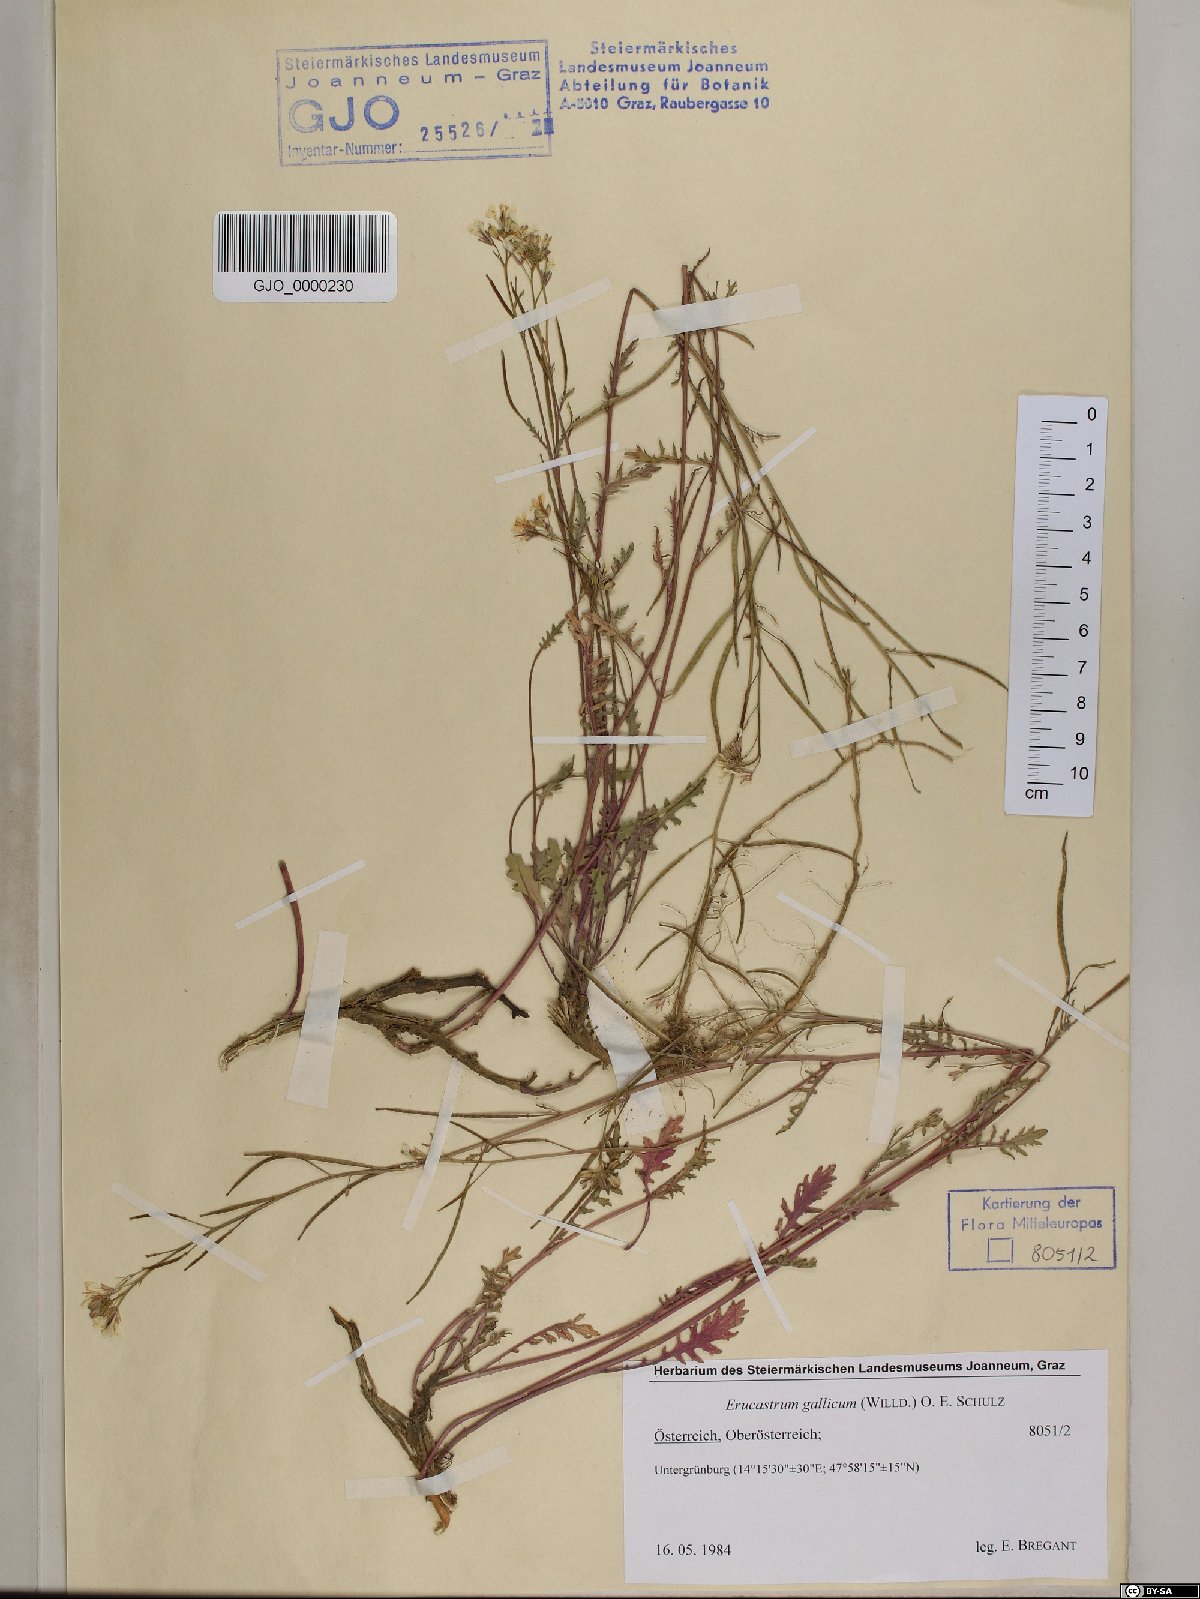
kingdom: Plantae
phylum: Tracheophyta
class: Magnoliopsida
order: Brassicales
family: Brassicaceae
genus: Erucastrum
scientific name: Erucastrum gallicum
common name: Hairy rocket
